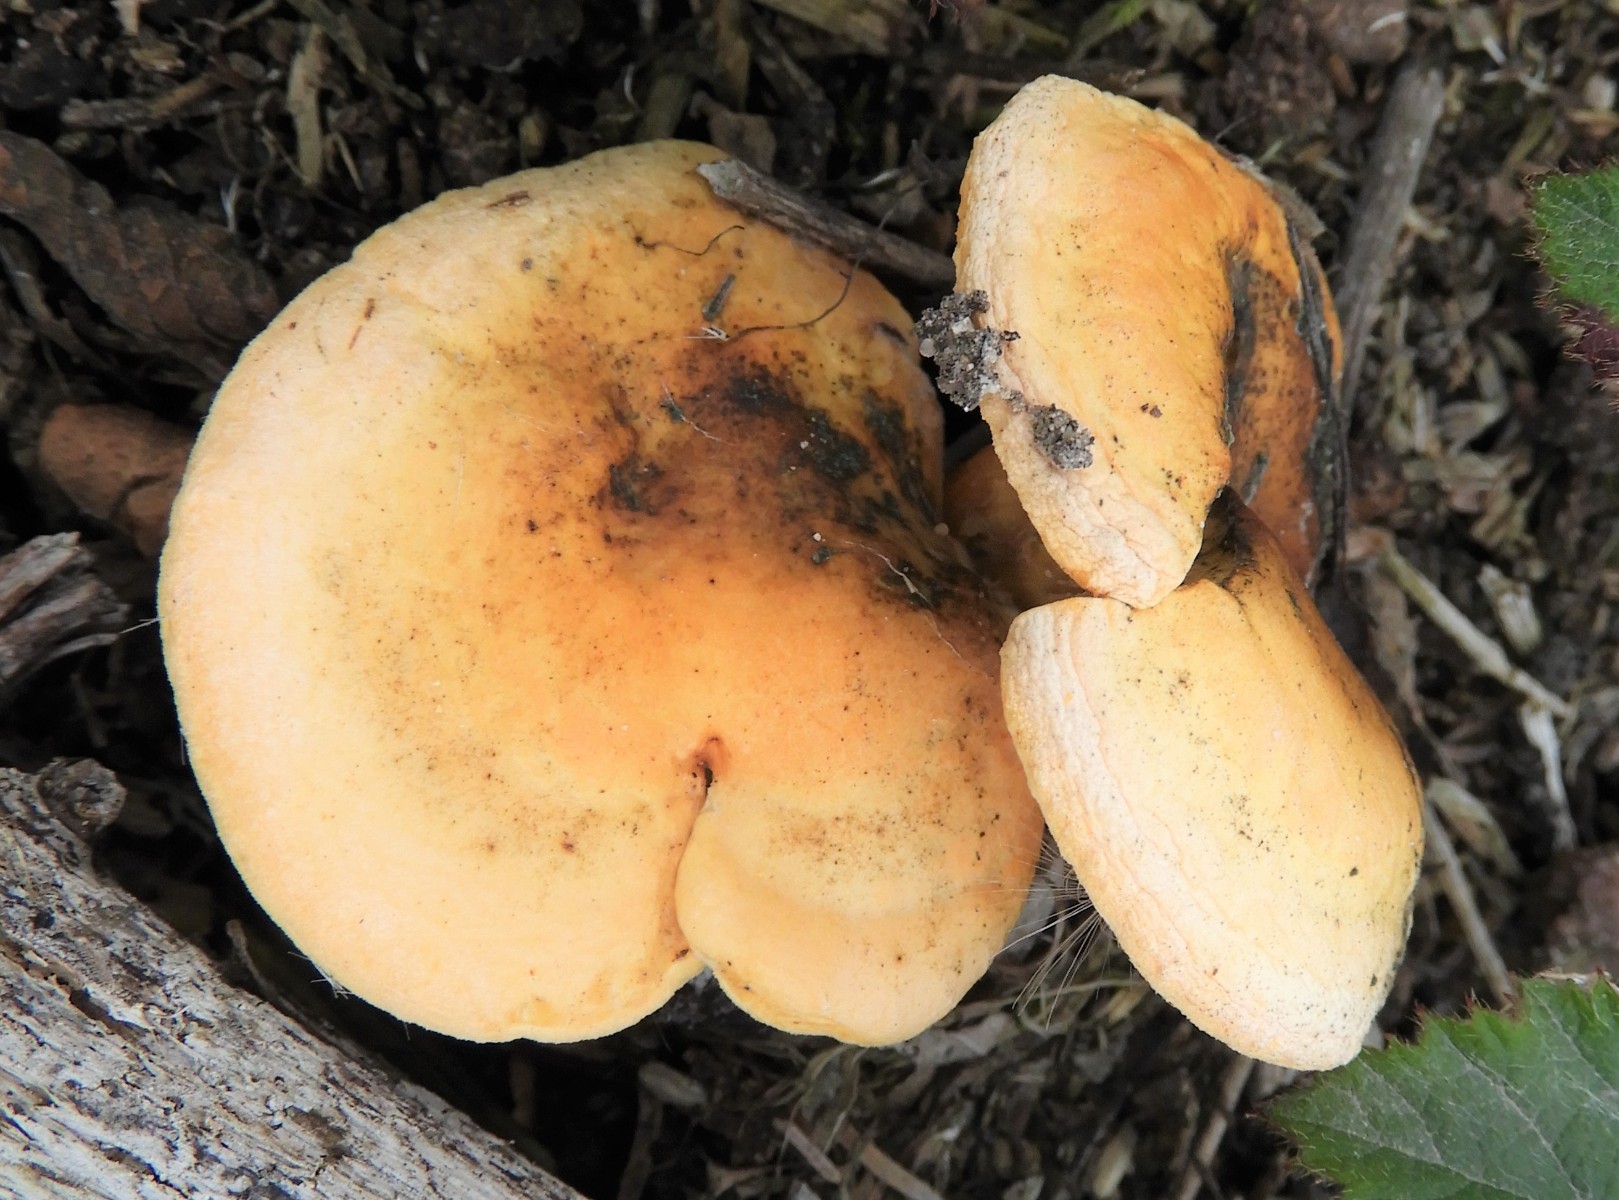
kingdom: Fungi
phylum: Basidiomycota
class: Agaricomycetes
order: Boletales
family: Hygrophoropsidaceae
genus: Hygrophoropsis
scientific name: Hygrophoropsis aurantiaca
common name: almindelig orangekantarel
